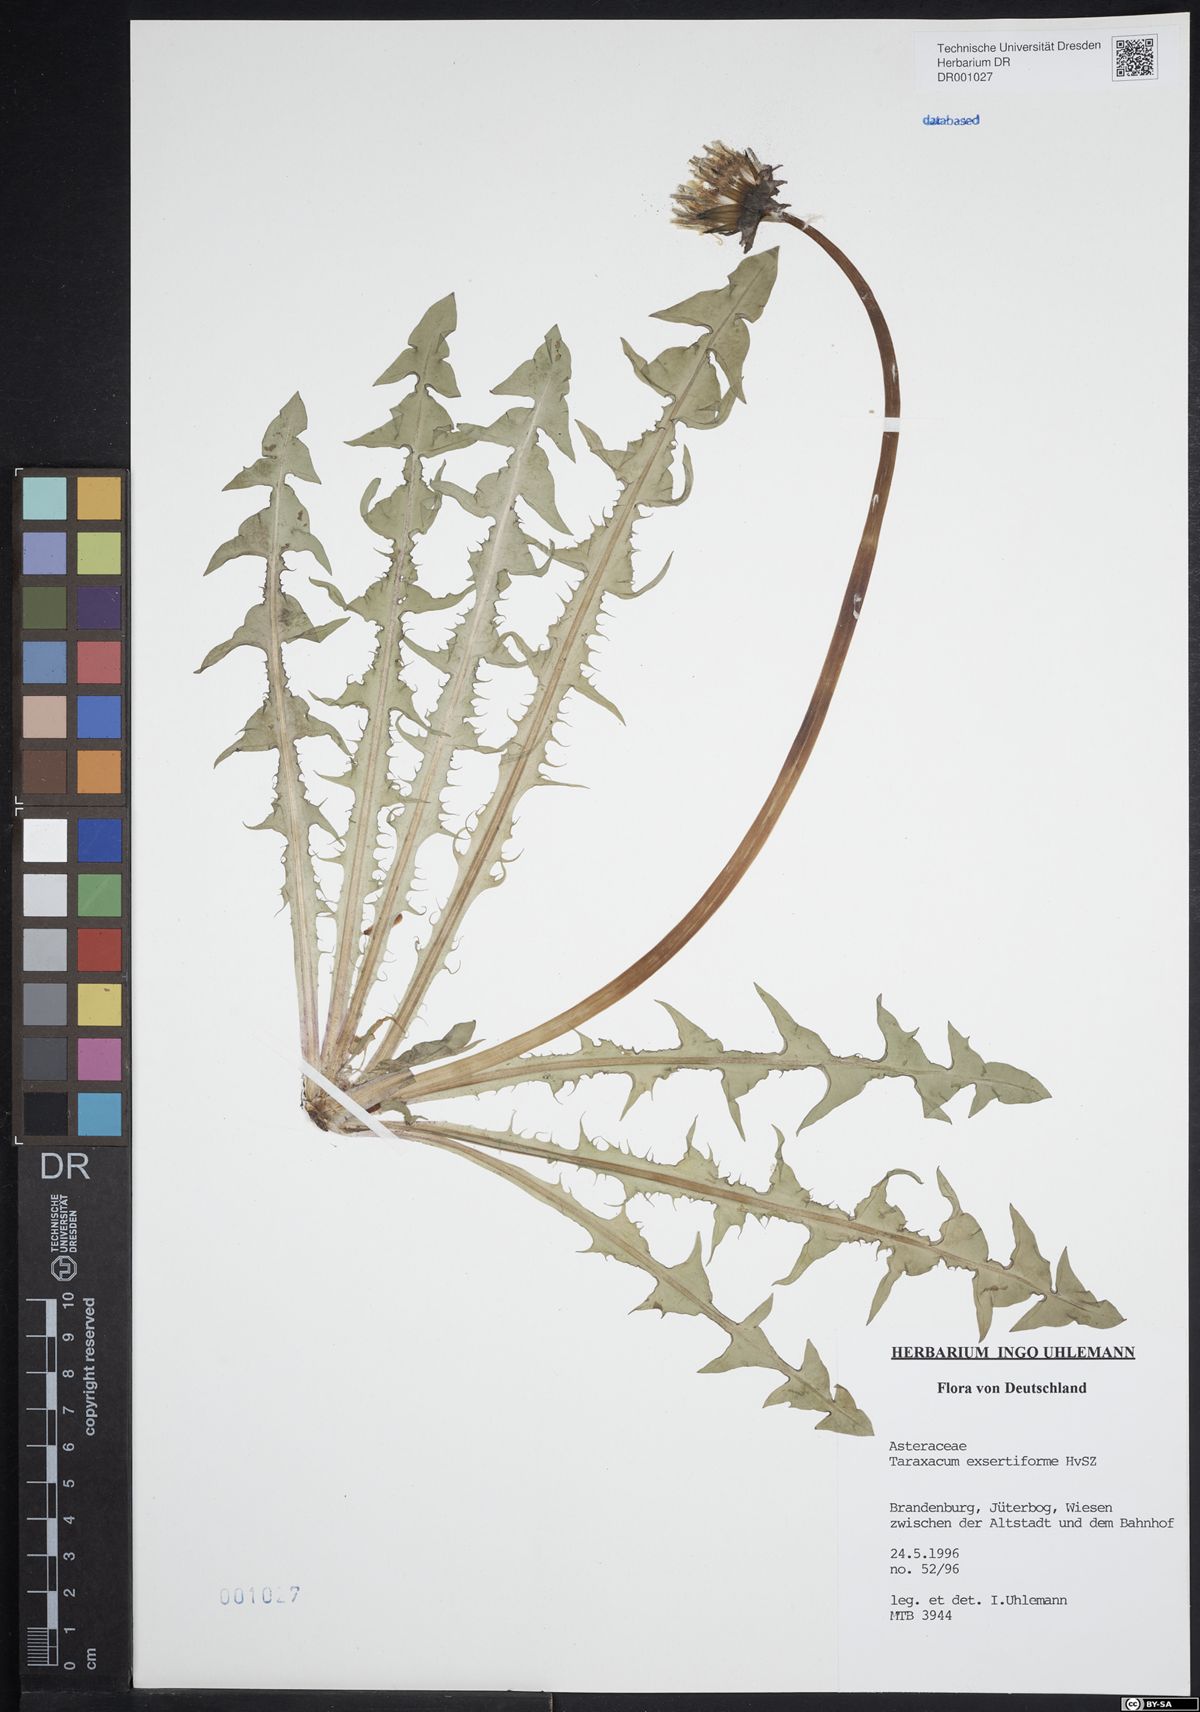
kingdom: Plantae
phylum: Tracheophyta
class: Magnoliopsida
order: Asterales
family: Asteraceae
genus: Taraxacum
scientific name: Taraxacum exsertiforme
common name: Erect-bracted dandelion
